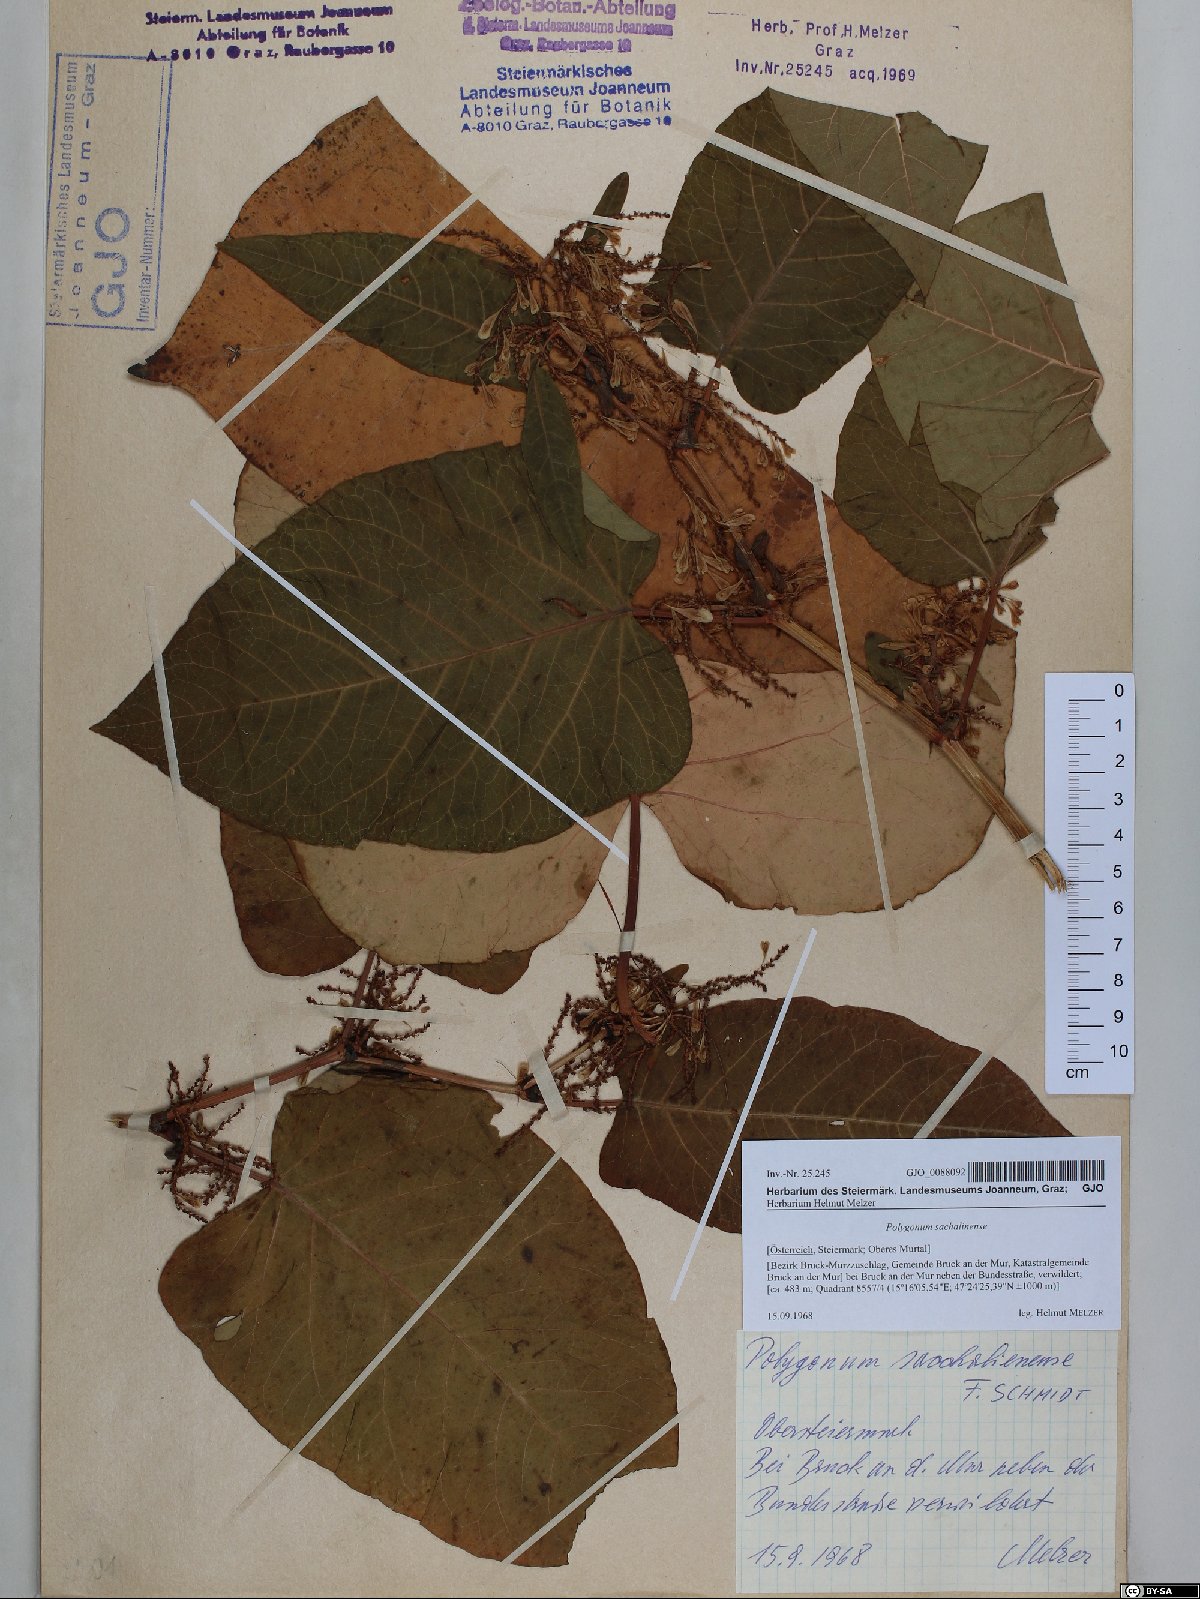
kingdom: Plantae
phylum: Tracheophyta
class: Magnoliopsida
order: Caryophyllales
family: Polygonaceae
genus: Reynoutria
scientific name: Reynoutria sachalinensis
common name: Giant knotweed
